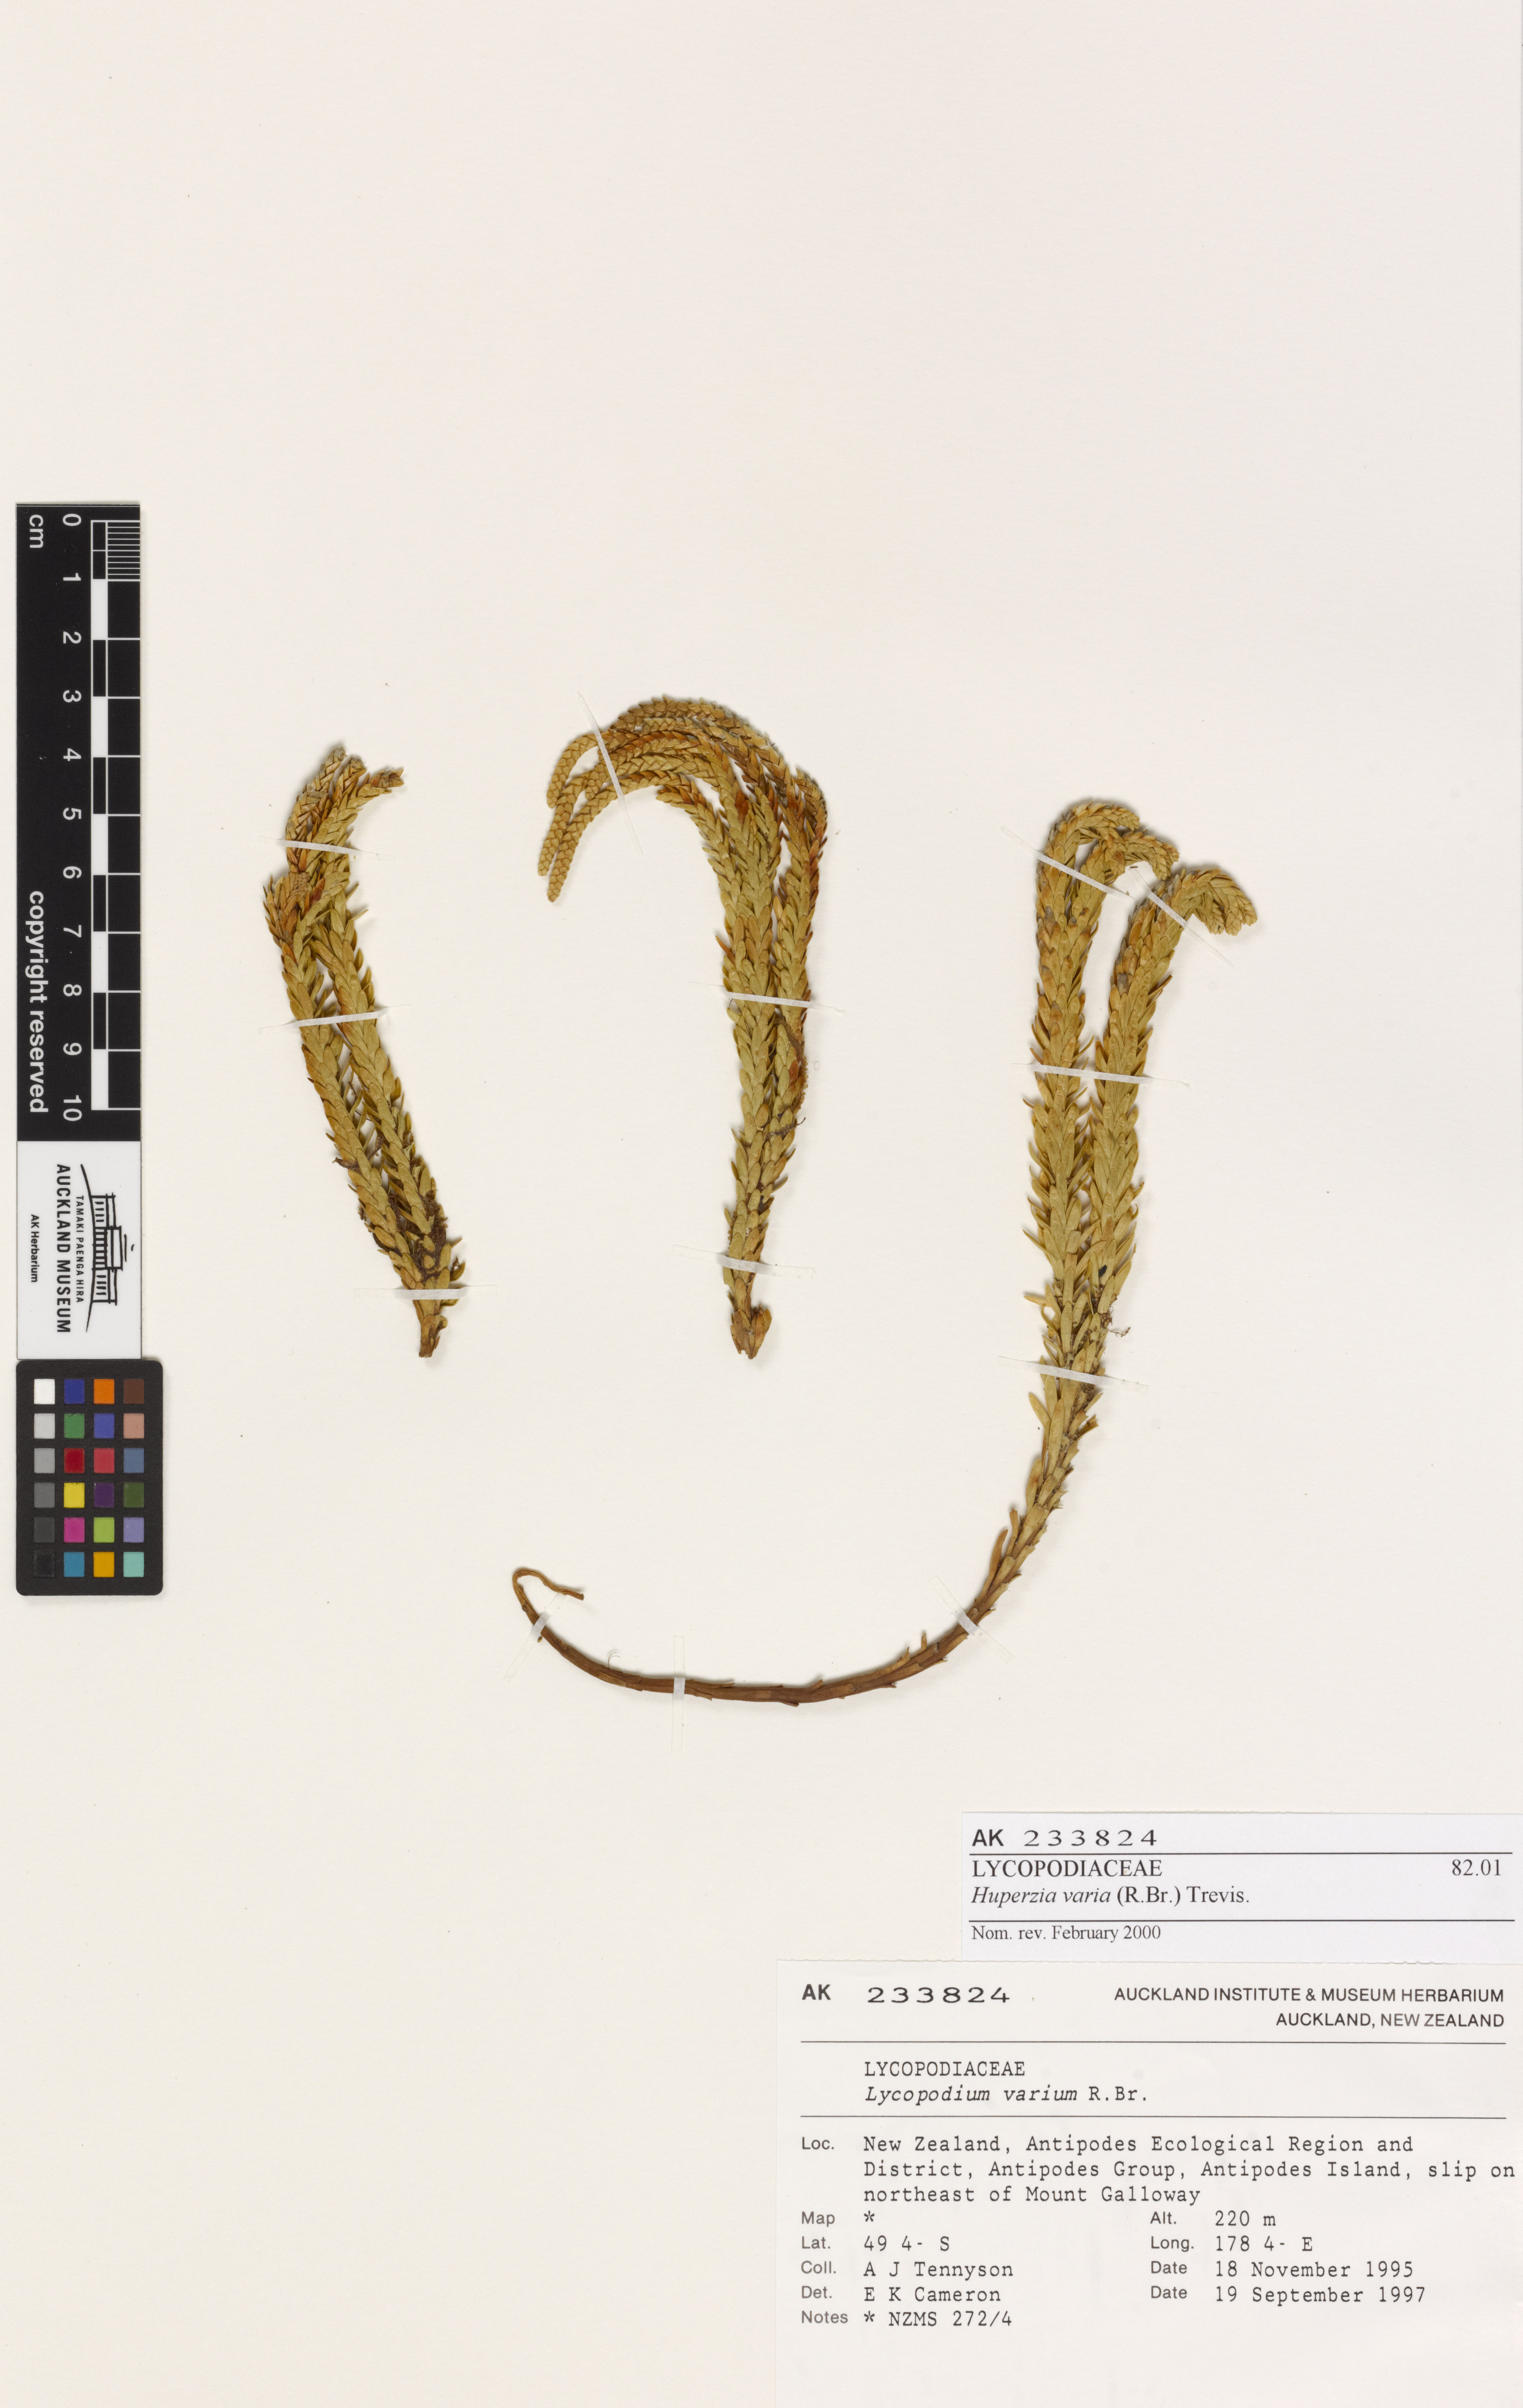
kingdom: Plantae
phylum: Tracheophyta
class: Lycopodiopsida
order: Lycopodiales
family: Lycopodiaceae
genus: Phlegmariurus
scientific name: Phlegmariurus varius
